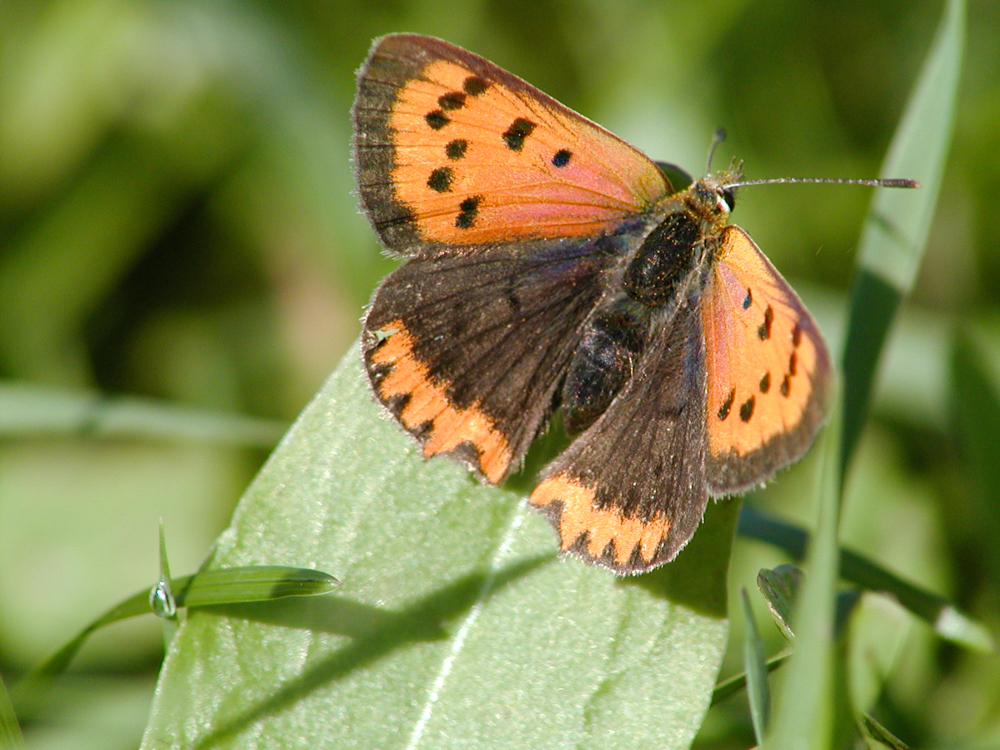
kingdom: Animalia
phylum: Arthropoda
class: Insecta
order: Lepidoptera
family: Lycaenidae
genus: Lycaena
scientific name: Lycaena phlaeas
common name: Small copper
